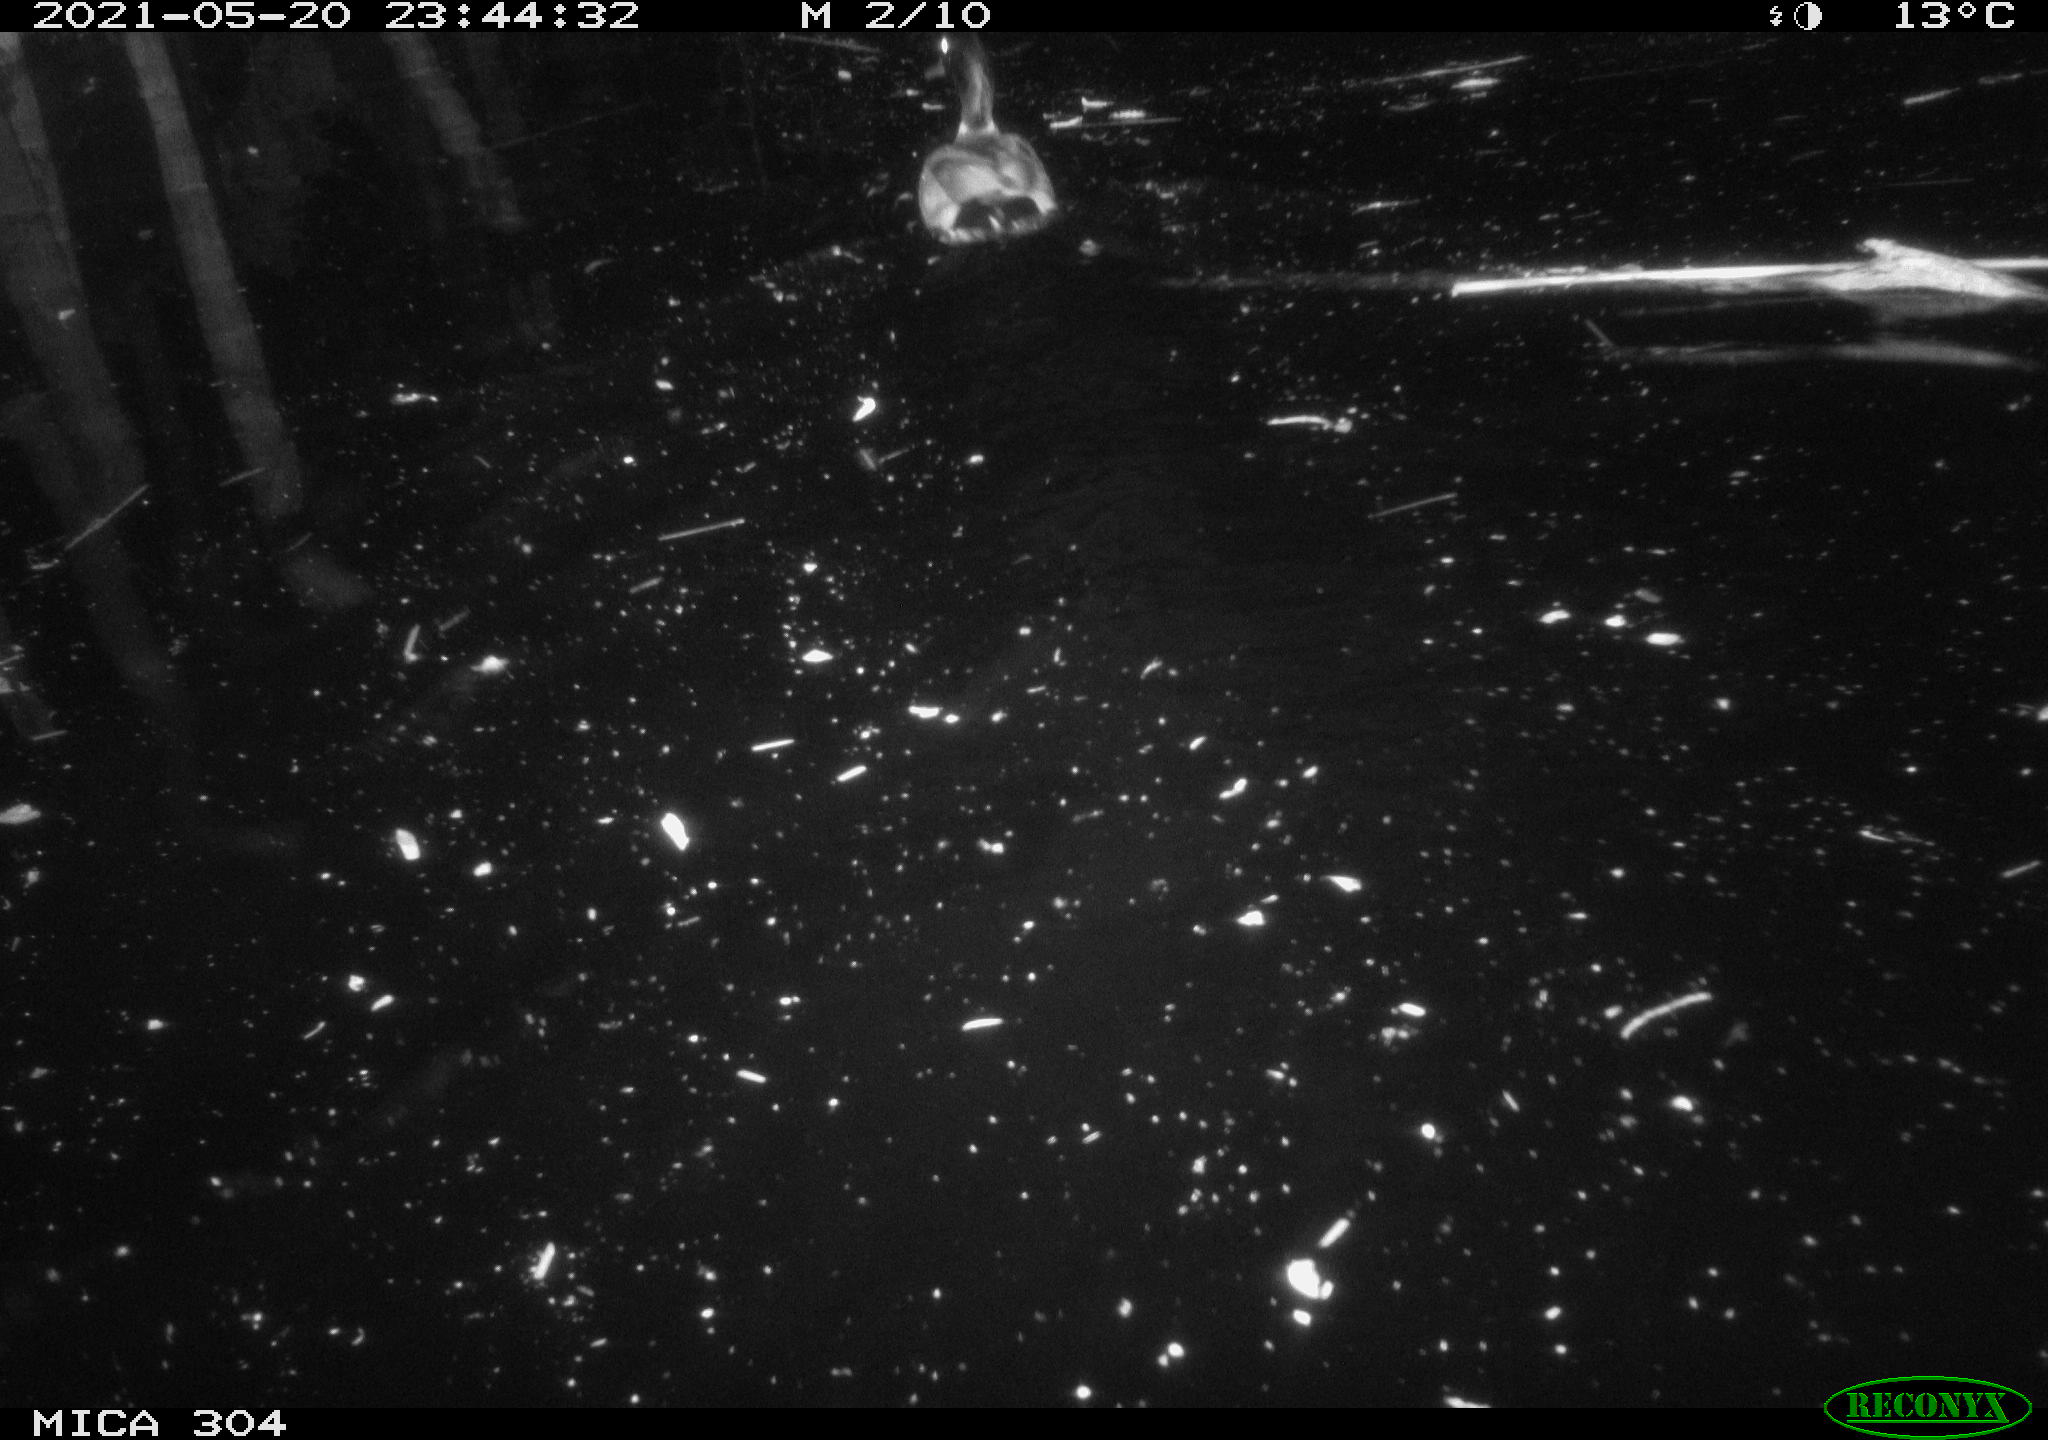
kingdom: Animalia
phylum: Chordata
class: Aves
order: Anseriformes
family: Anatidae
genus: Anas
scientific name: Anas platyrhynchos
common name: Mallard
